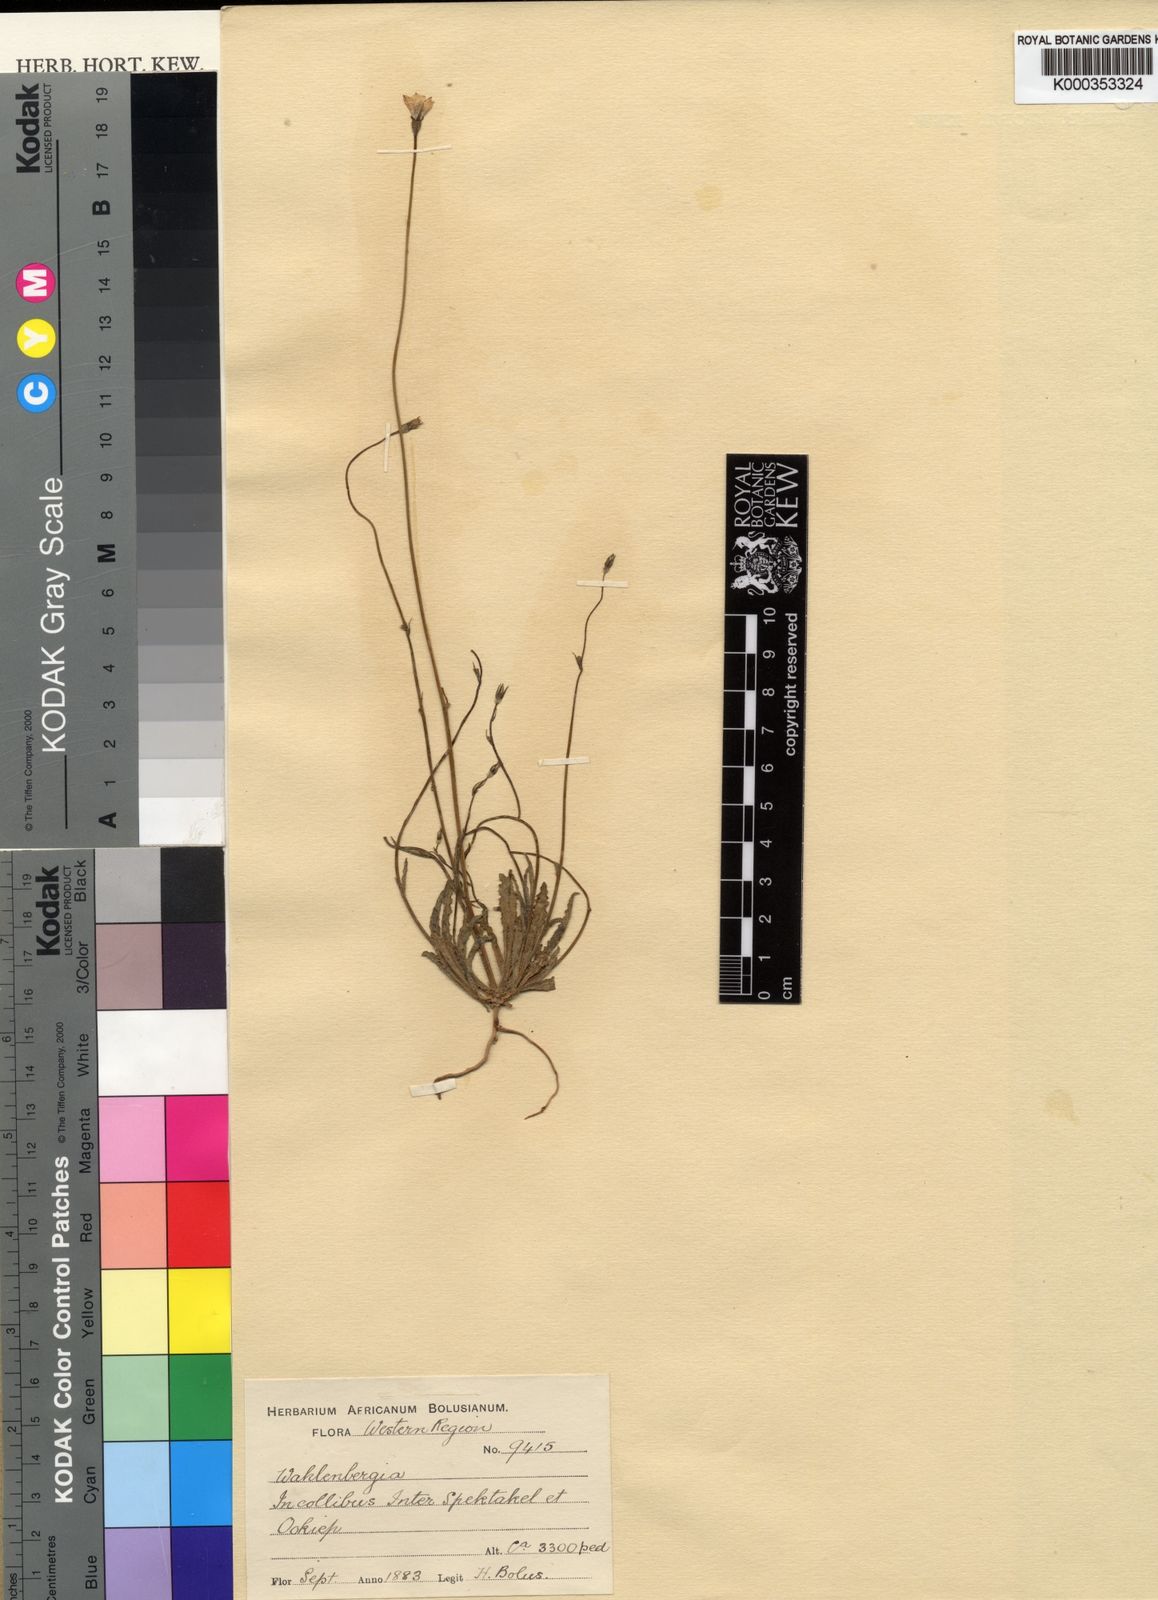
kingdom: Plantae
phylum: Tracheophyta
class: Magnoliopsida
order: Asterales
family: Campanulaceae
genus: Wahlenbergia
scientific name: Wahlenbergia lasiocarpa
